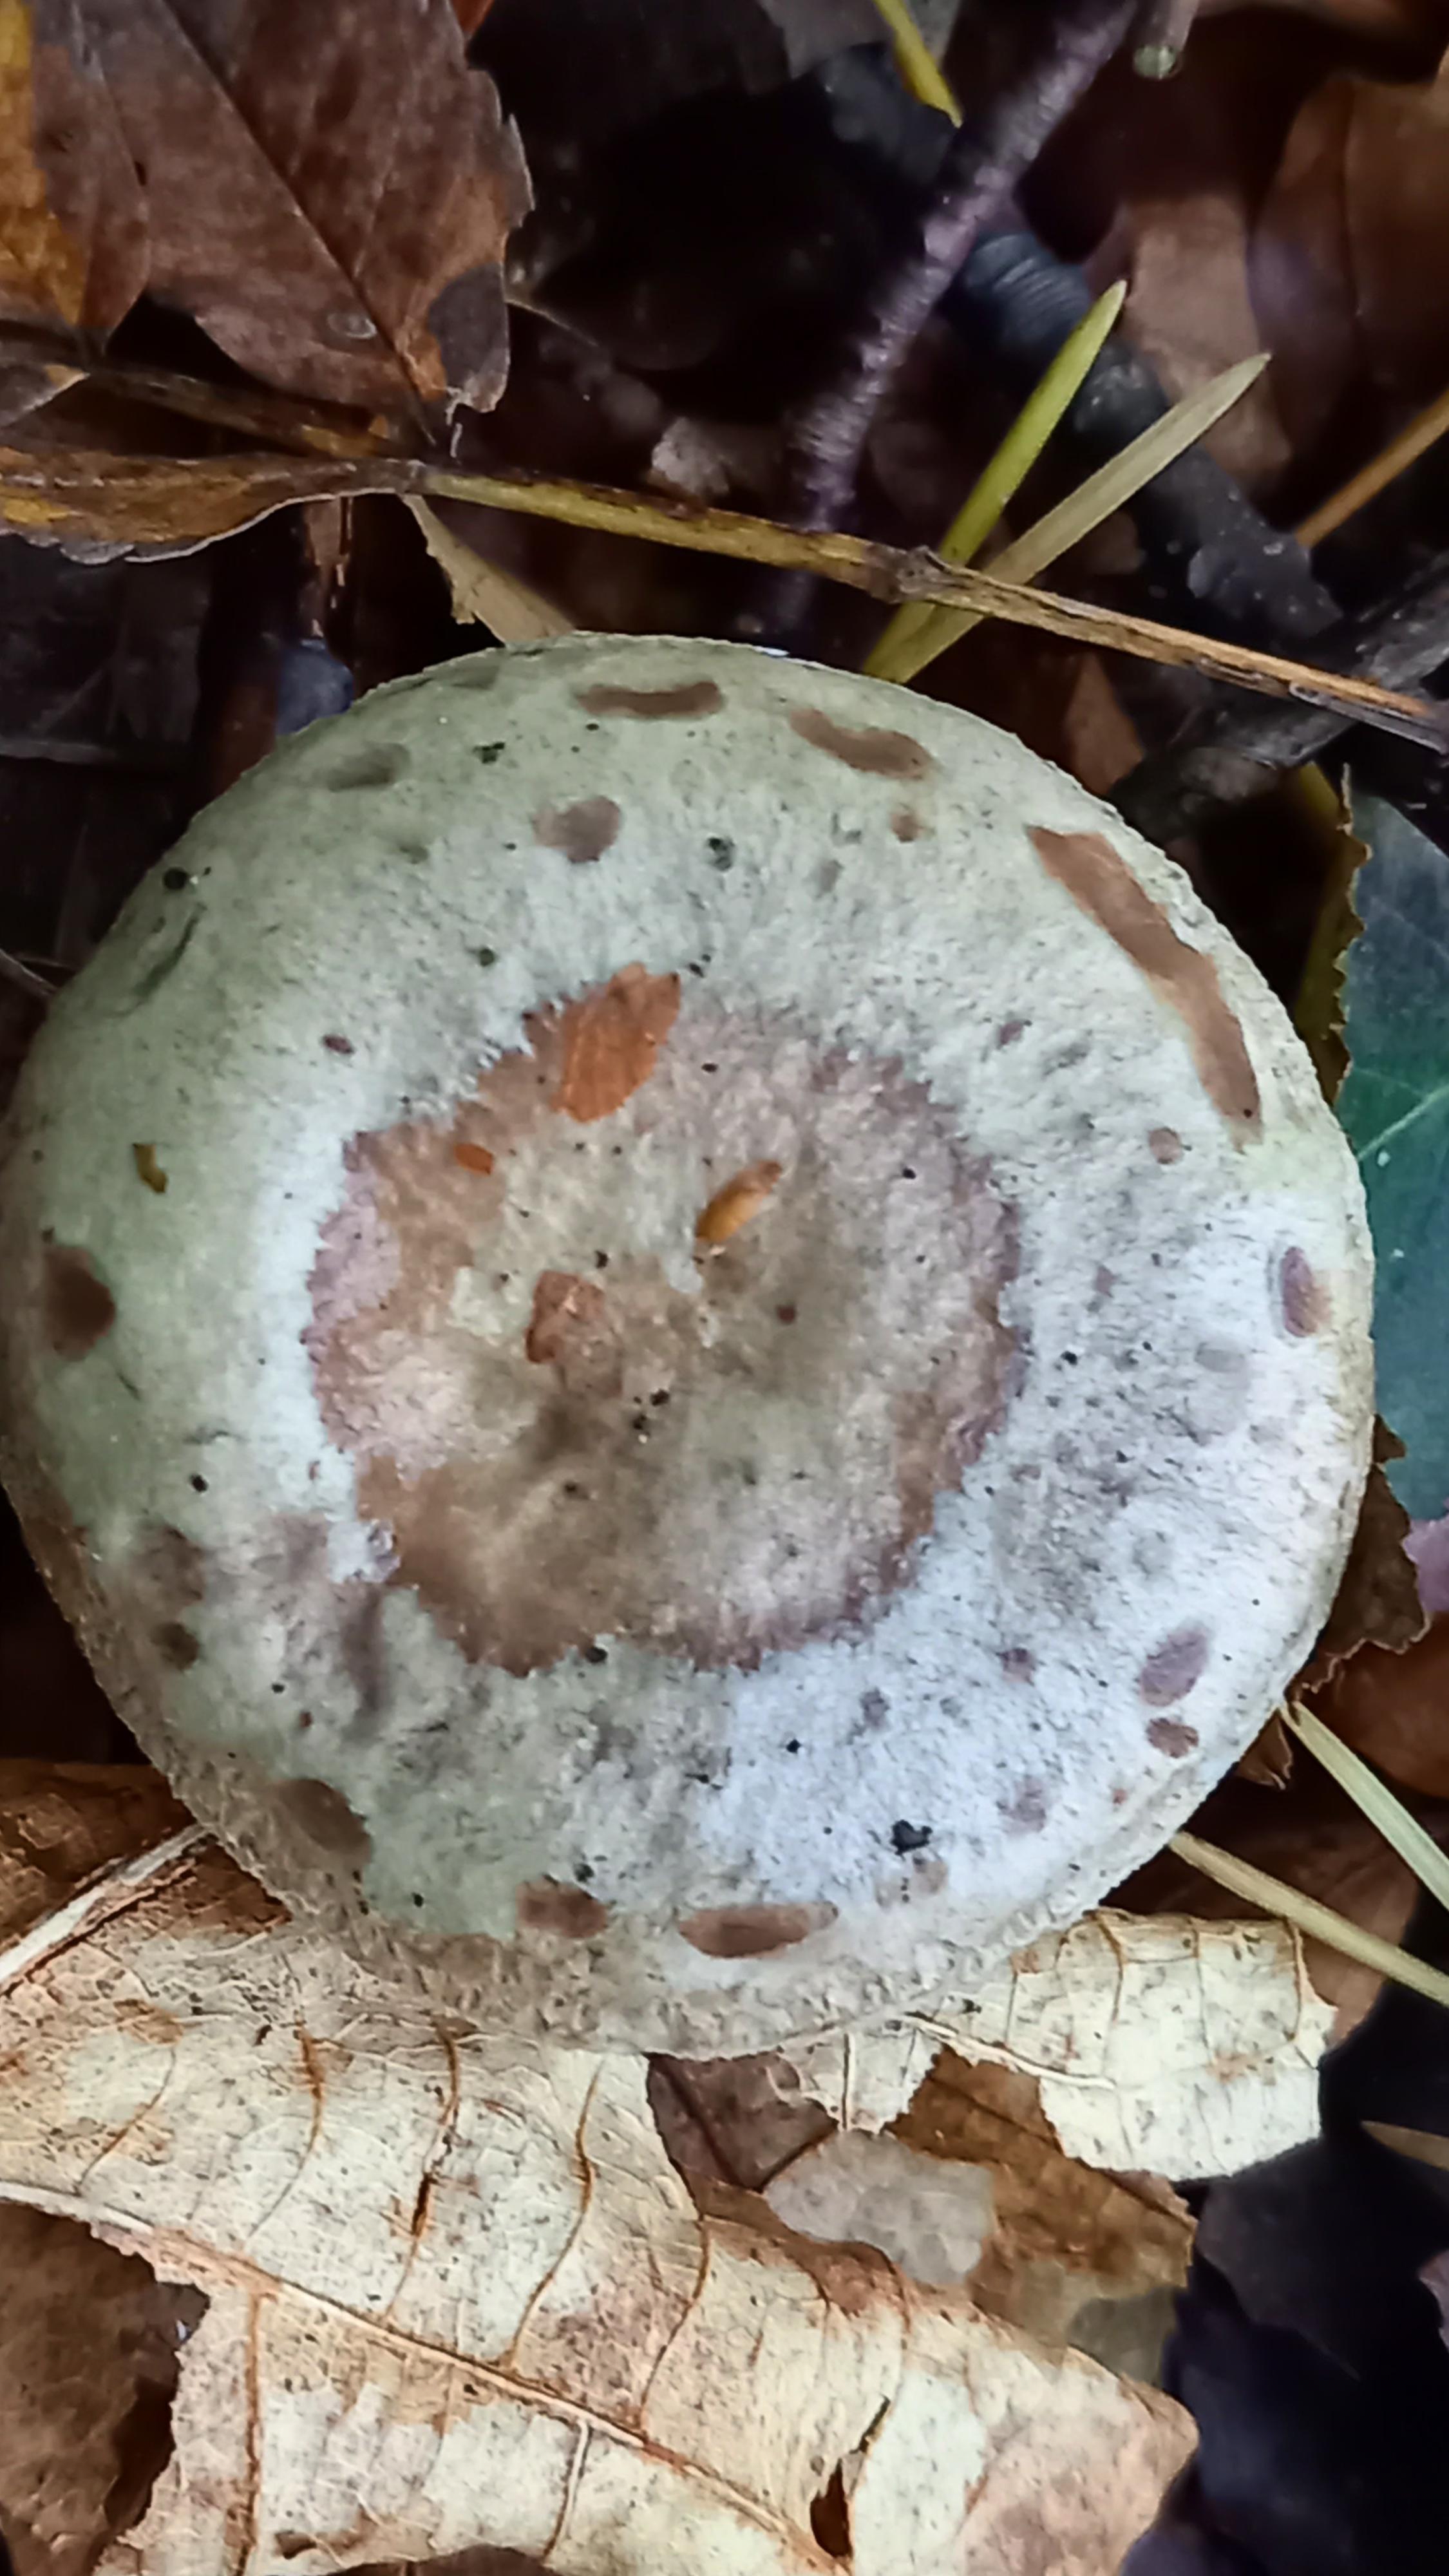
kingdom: Fungi
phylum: Basidiomycota
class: Agaricomycetes
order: Russulales
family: Russulaceae
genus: Lactarius
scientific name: Lactarius blennius
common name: dråbeplettet mælkehat
